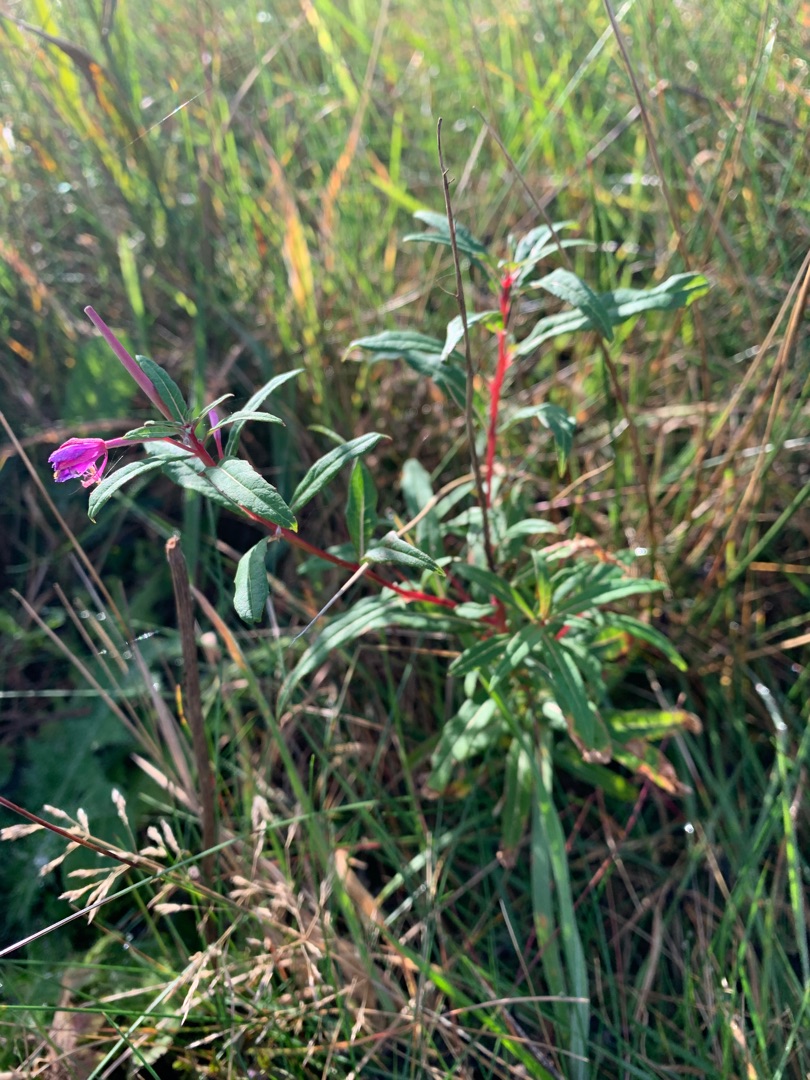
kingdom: Plantae
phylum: Tracheophyta
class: Magnoliopsida
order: Myrtales
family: Onagraceae
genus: Chamaenerion
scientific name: Chamaenerion angustifolium
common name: Gederams
